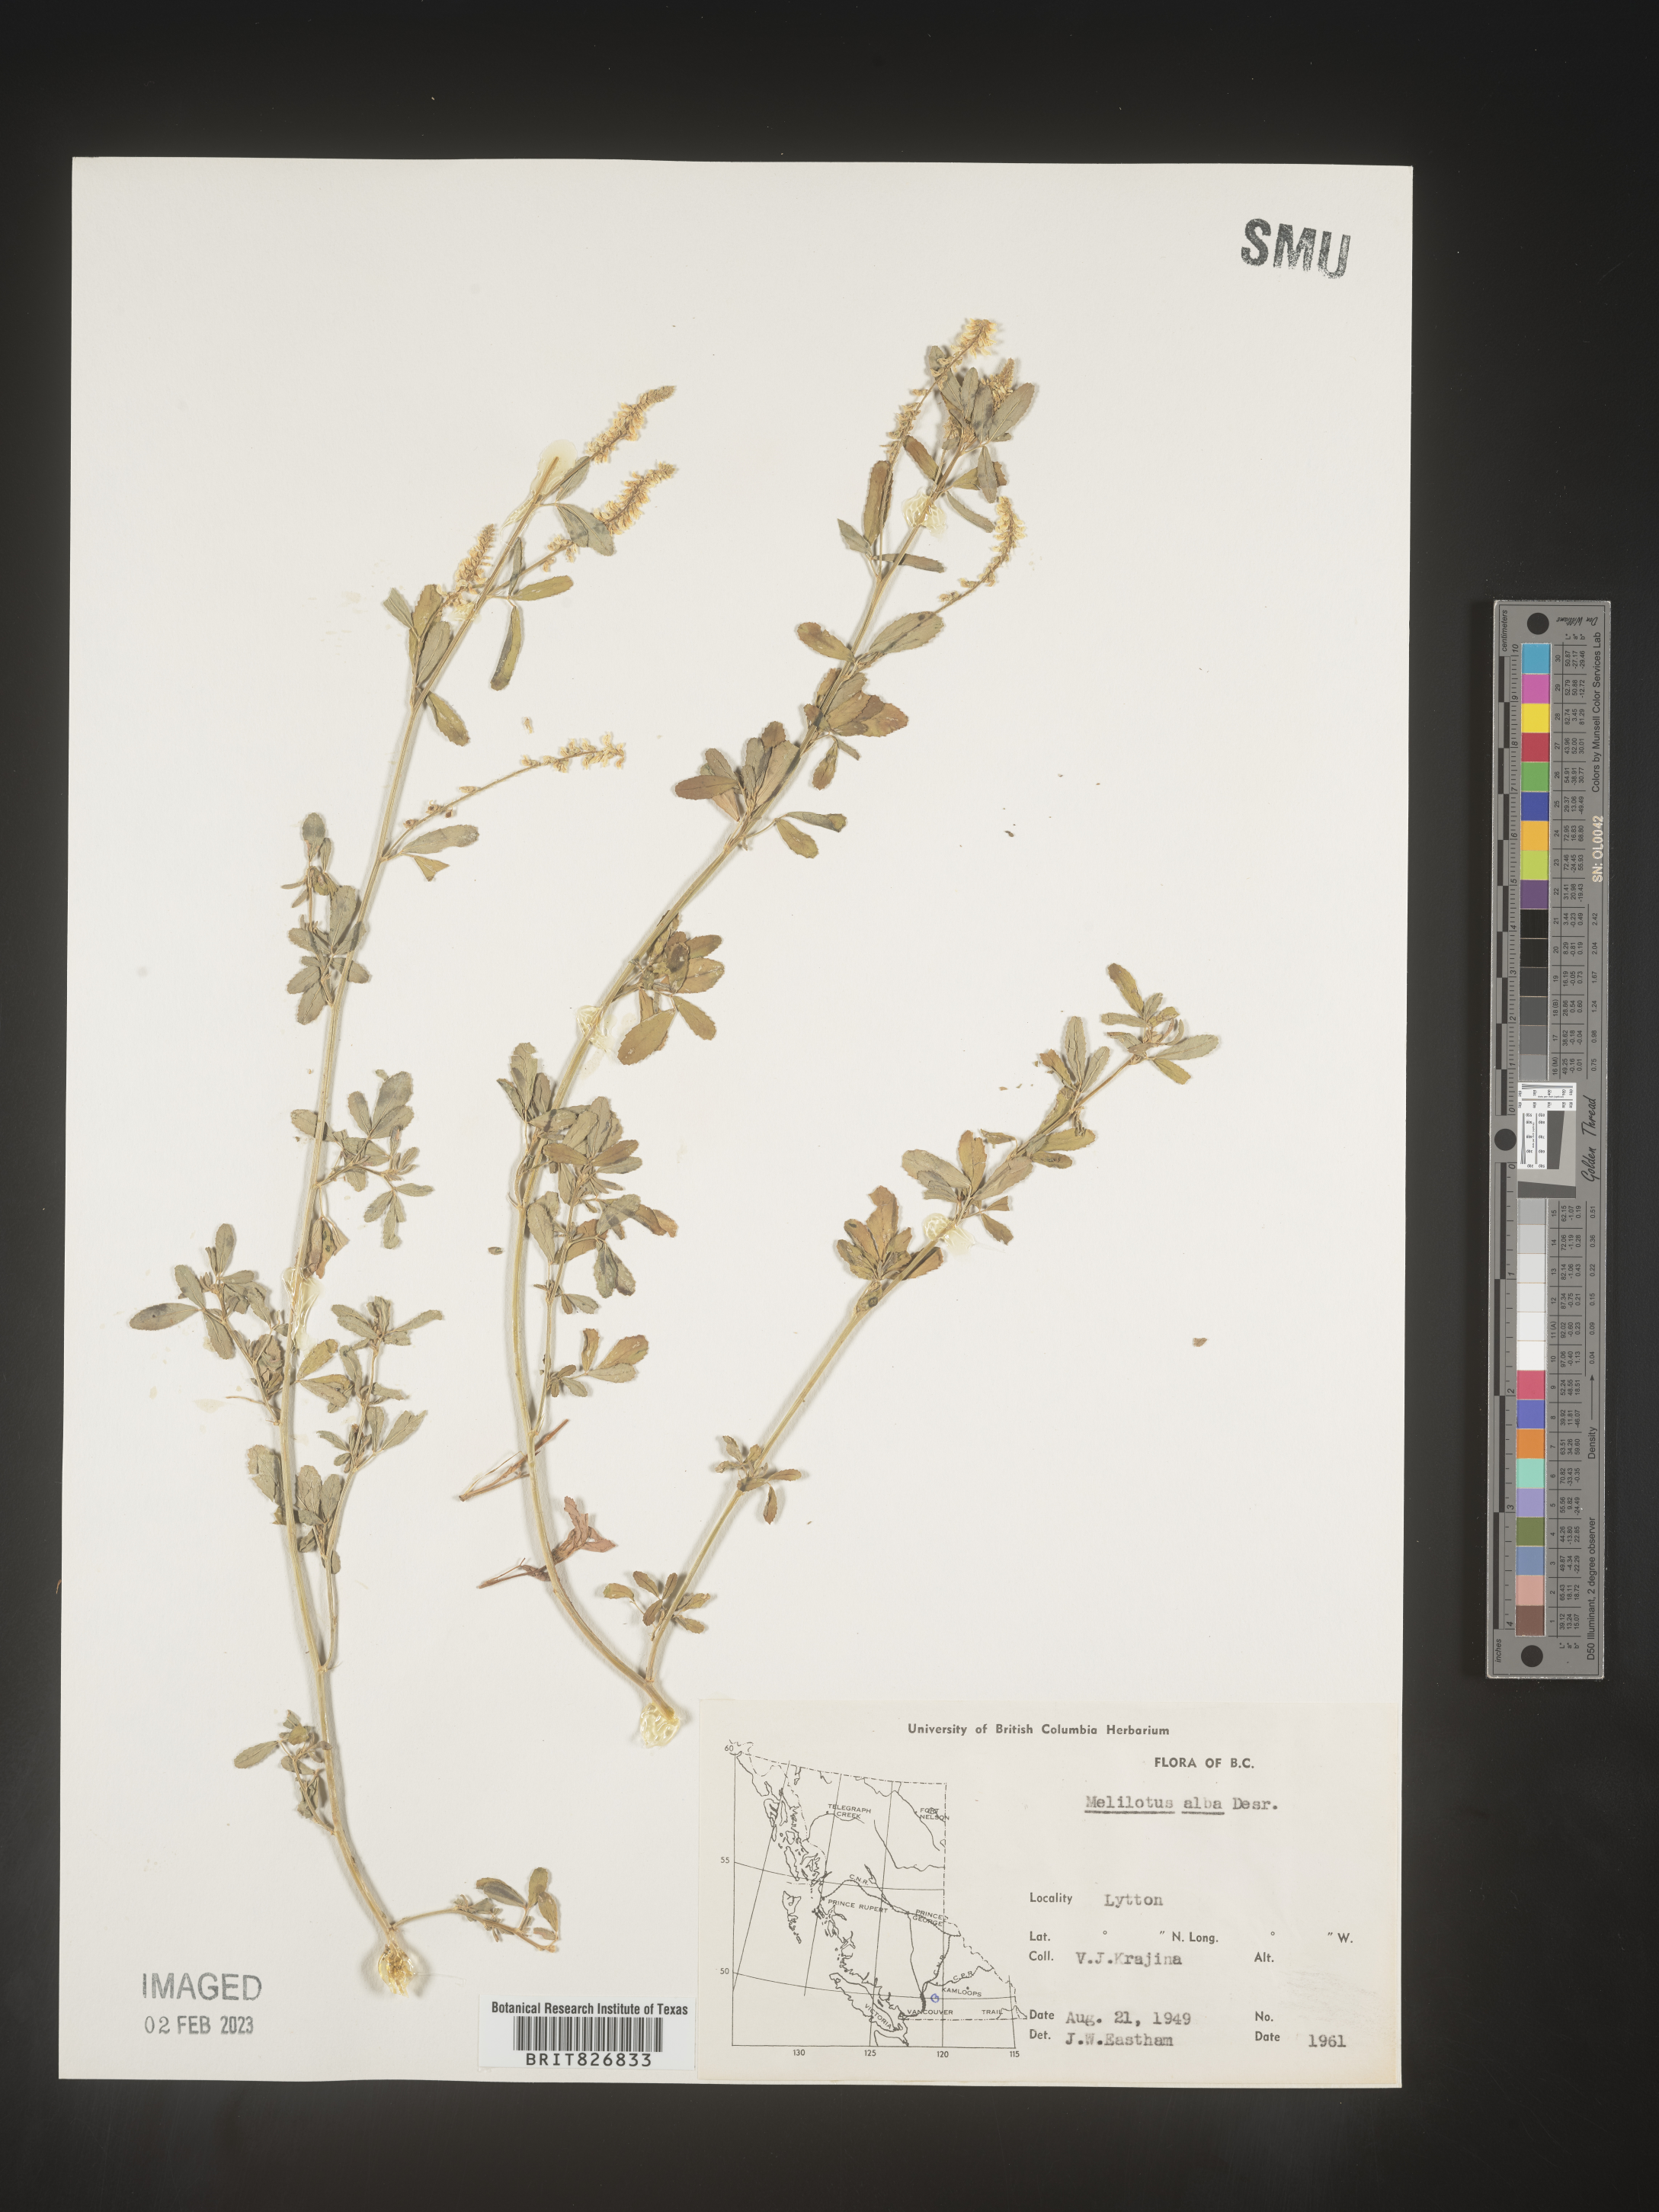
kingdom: Plantae
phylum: Tracheophyta
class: Magnoliopsida
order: Fabales
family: Fabaceae
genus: Melilotus
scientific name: Melilotus albus
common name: White melilot
